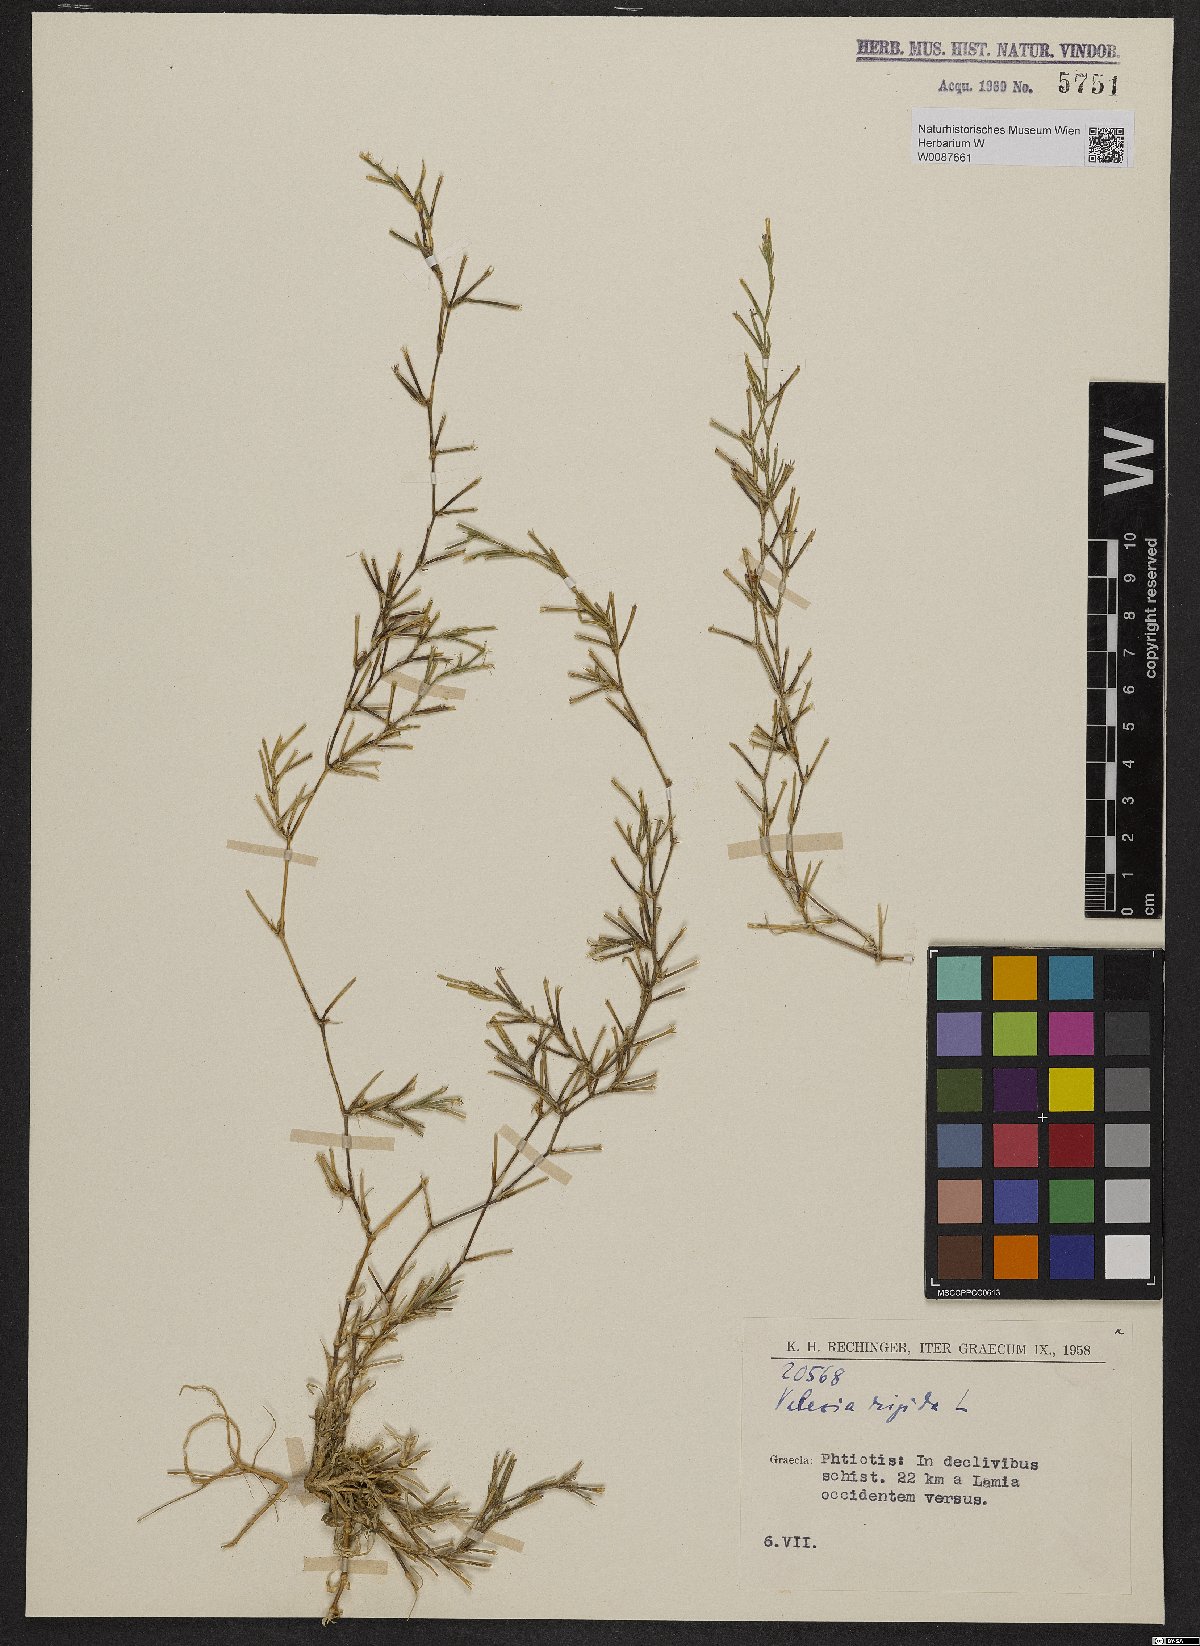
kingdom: Plantae
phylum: Tracheophyta
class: Magnoliopsida
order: Caryophyllales
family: Caryophyllaceae
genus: Dianthus
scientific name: Dianthus nudiflorus
